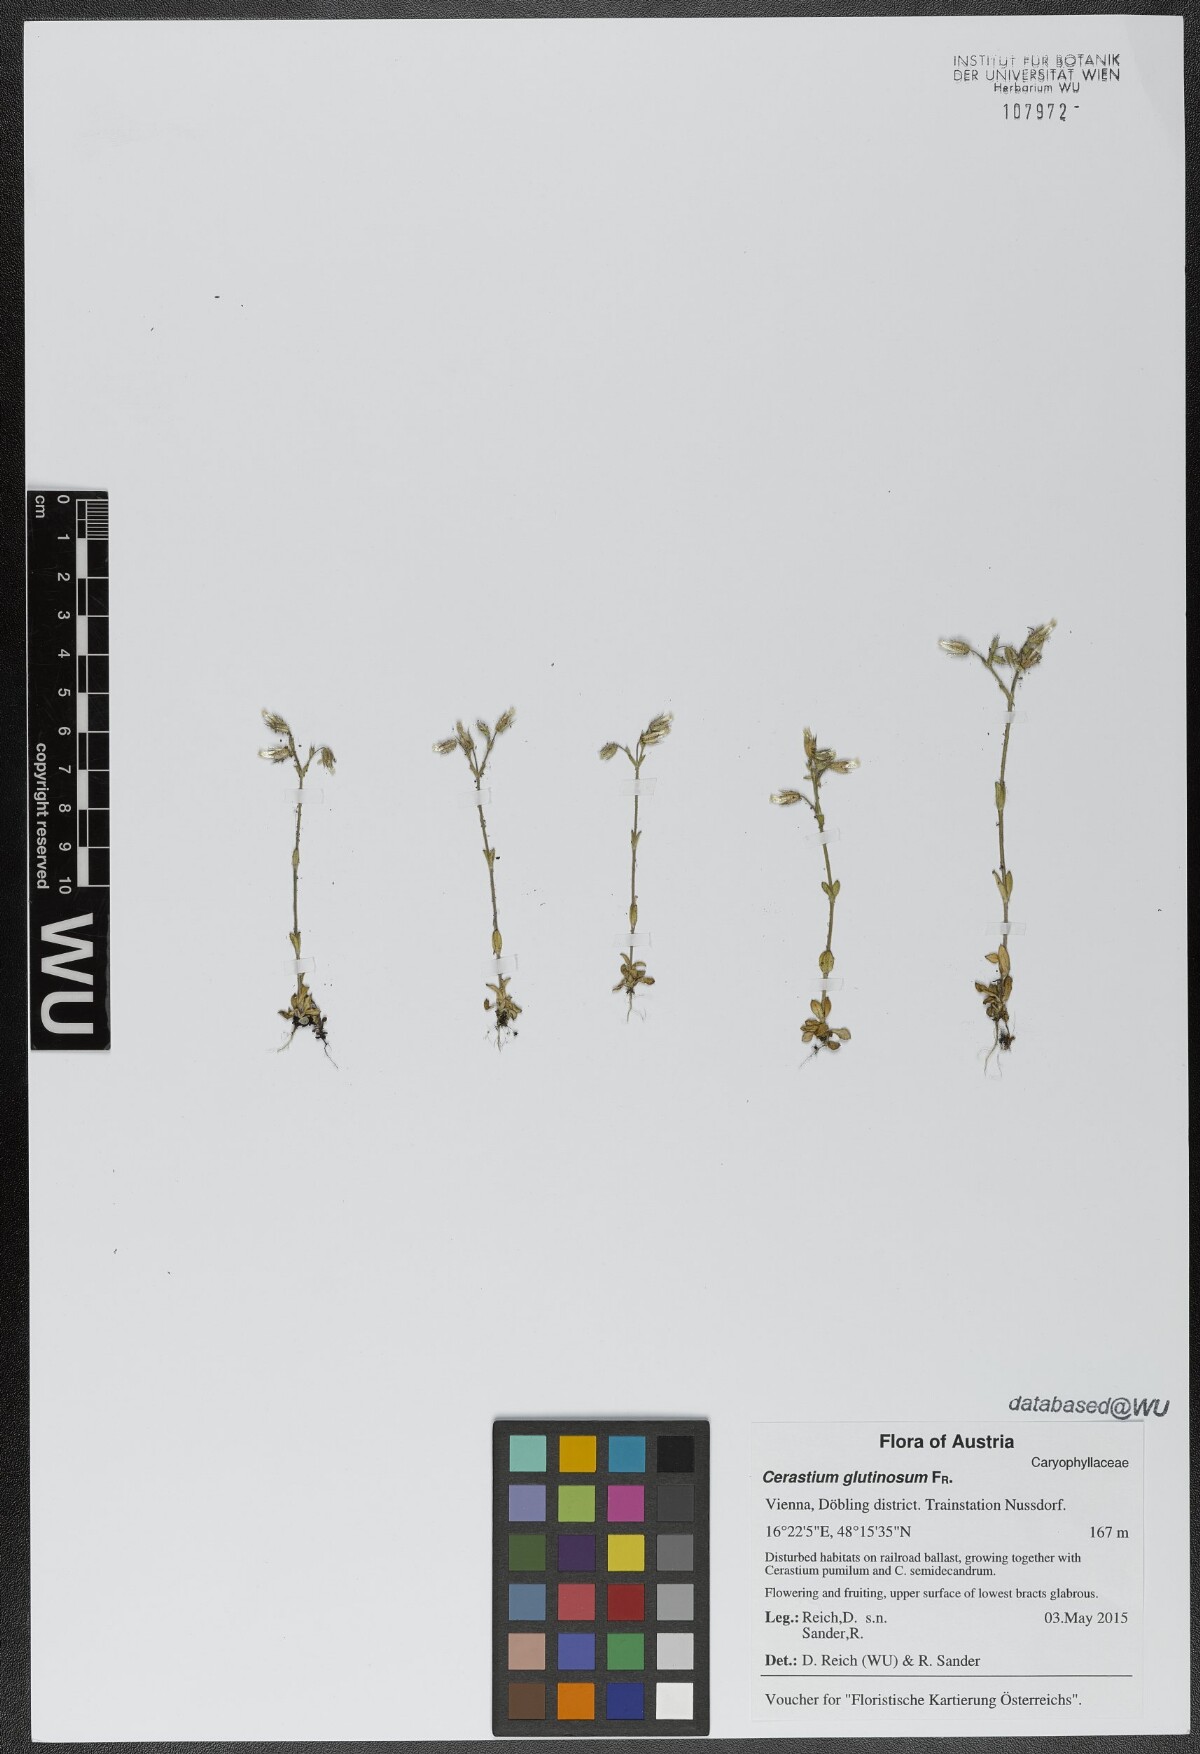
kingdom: Plantae
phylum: Tracheophyta
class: Magnoliopsida
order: Caryophyllales
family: Caryophyllaceae
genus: Cerastium
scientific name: Cerastium glutinosum
